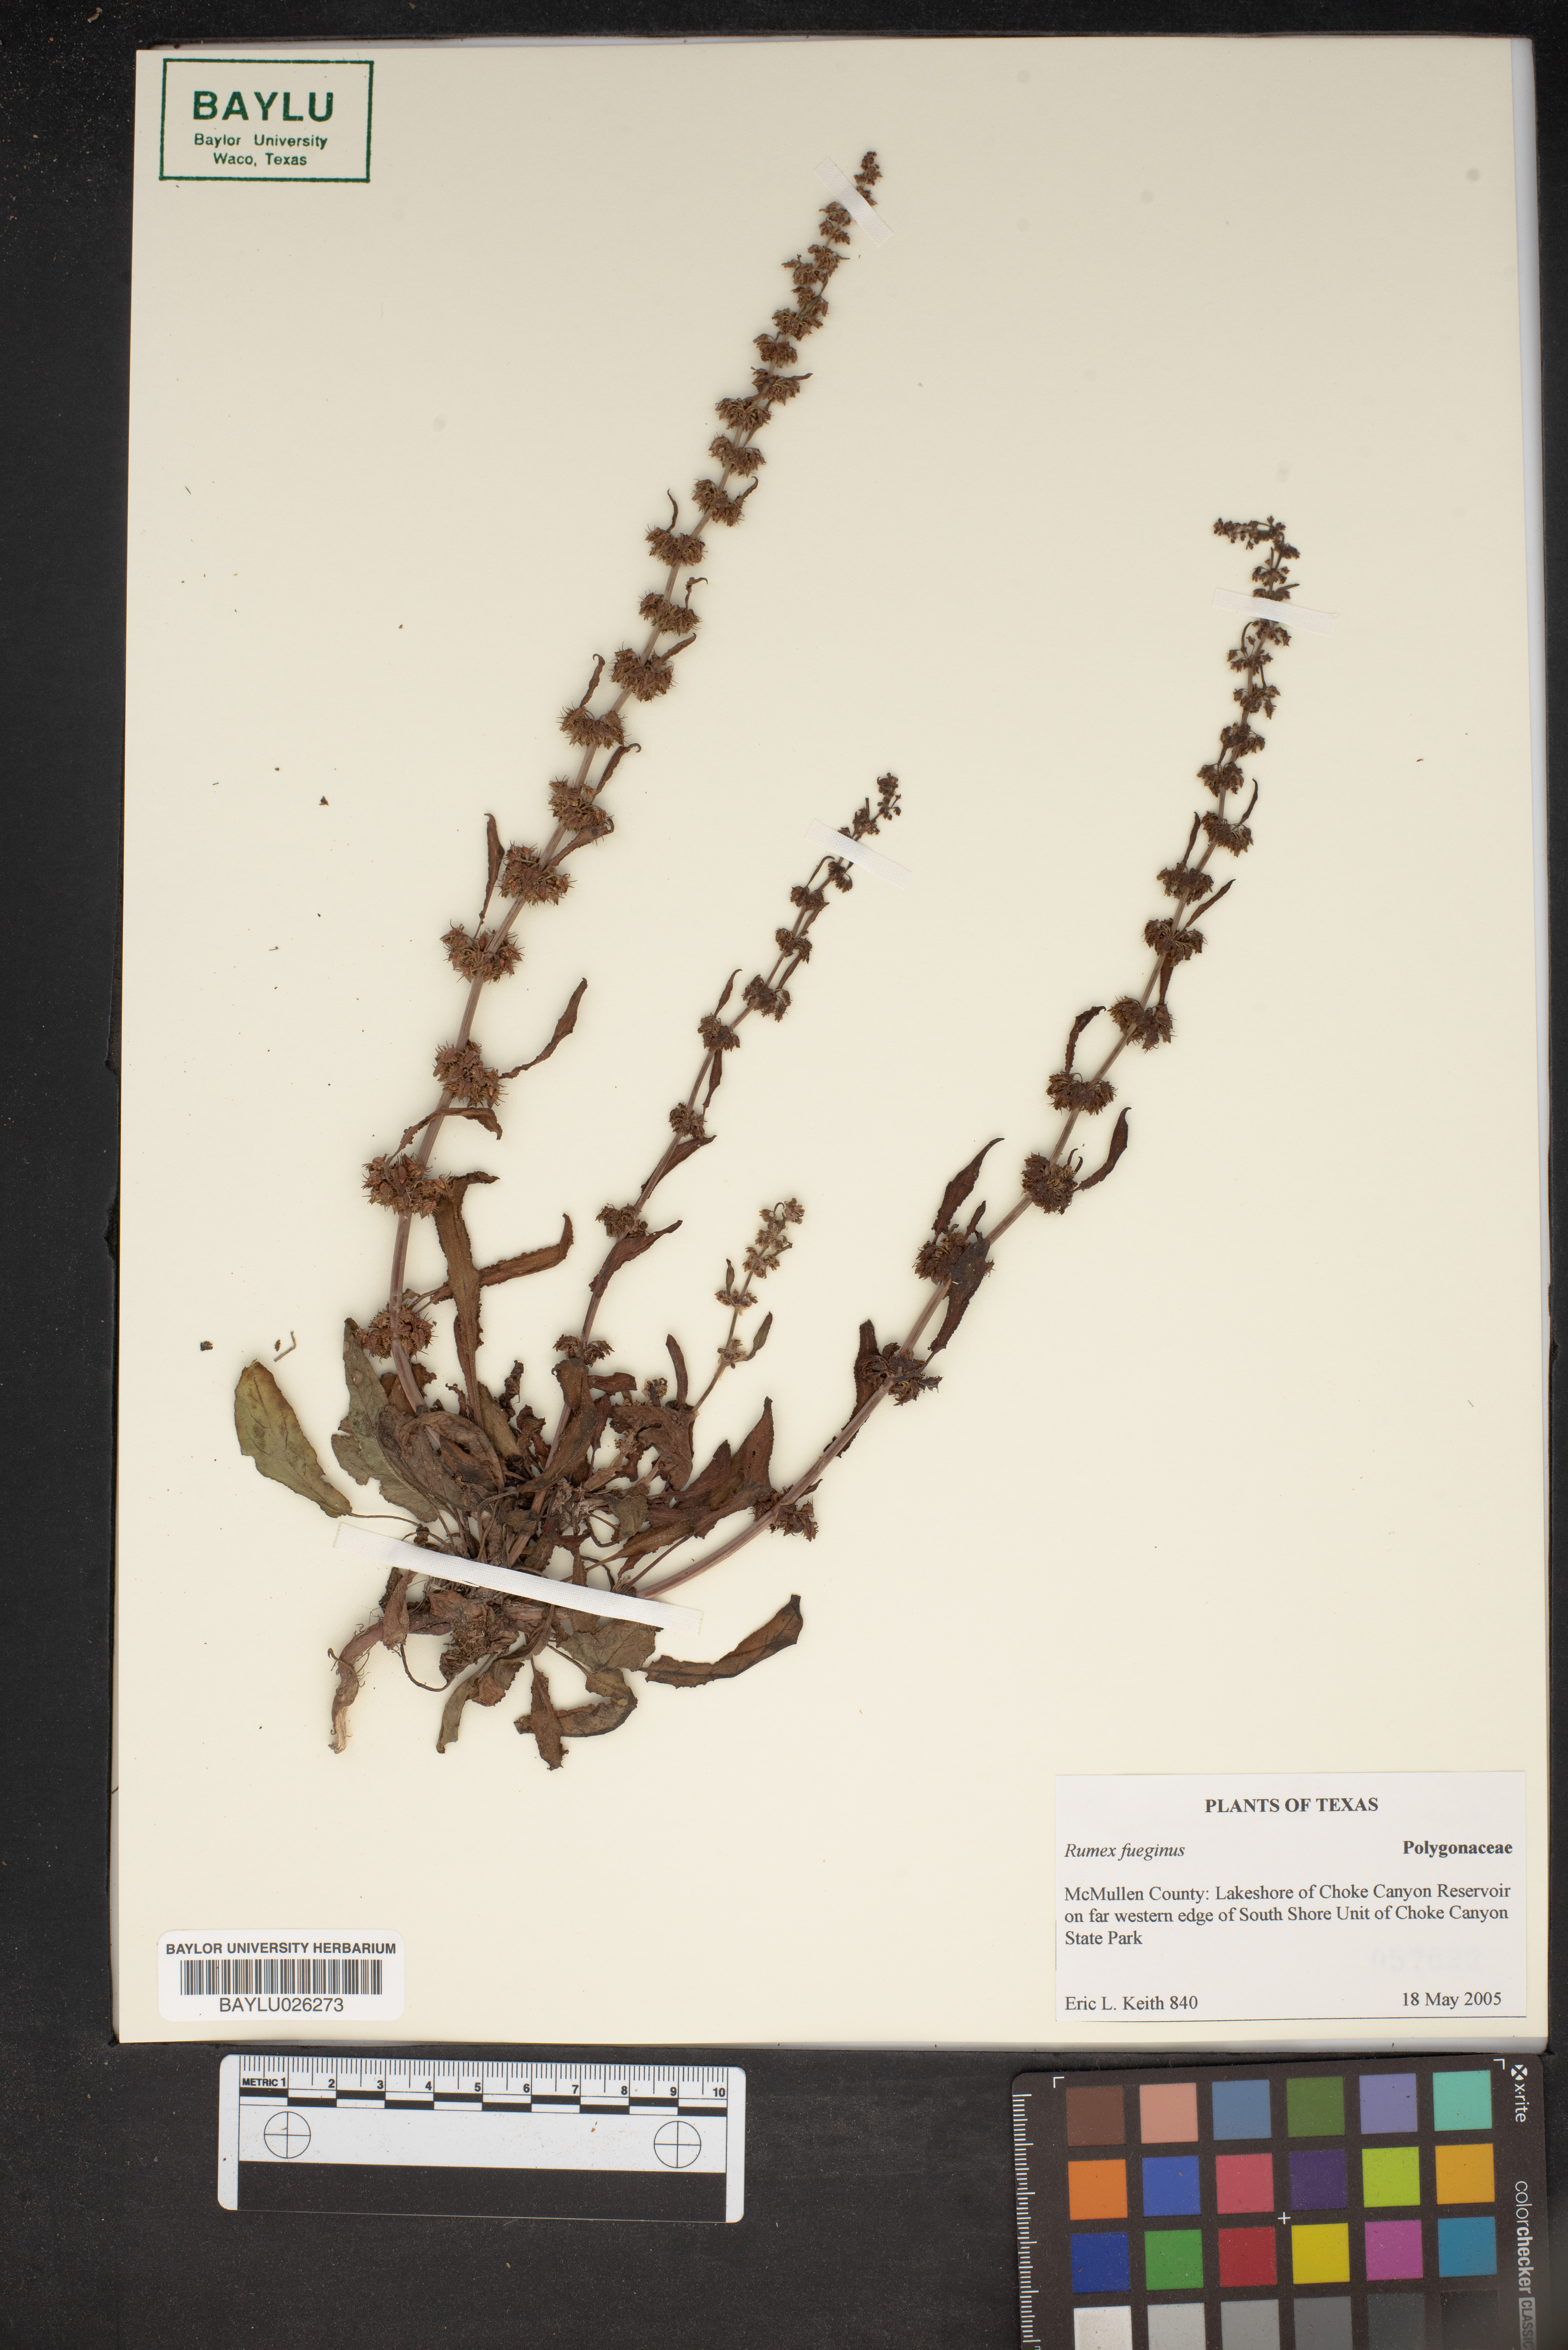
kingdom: Plantae
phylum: Tracheophyta
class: Magnoliopsida
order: Caryophyllales
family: Polygonaceae
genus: Rumex
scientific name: Rumex fueginus
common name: American golden dock
